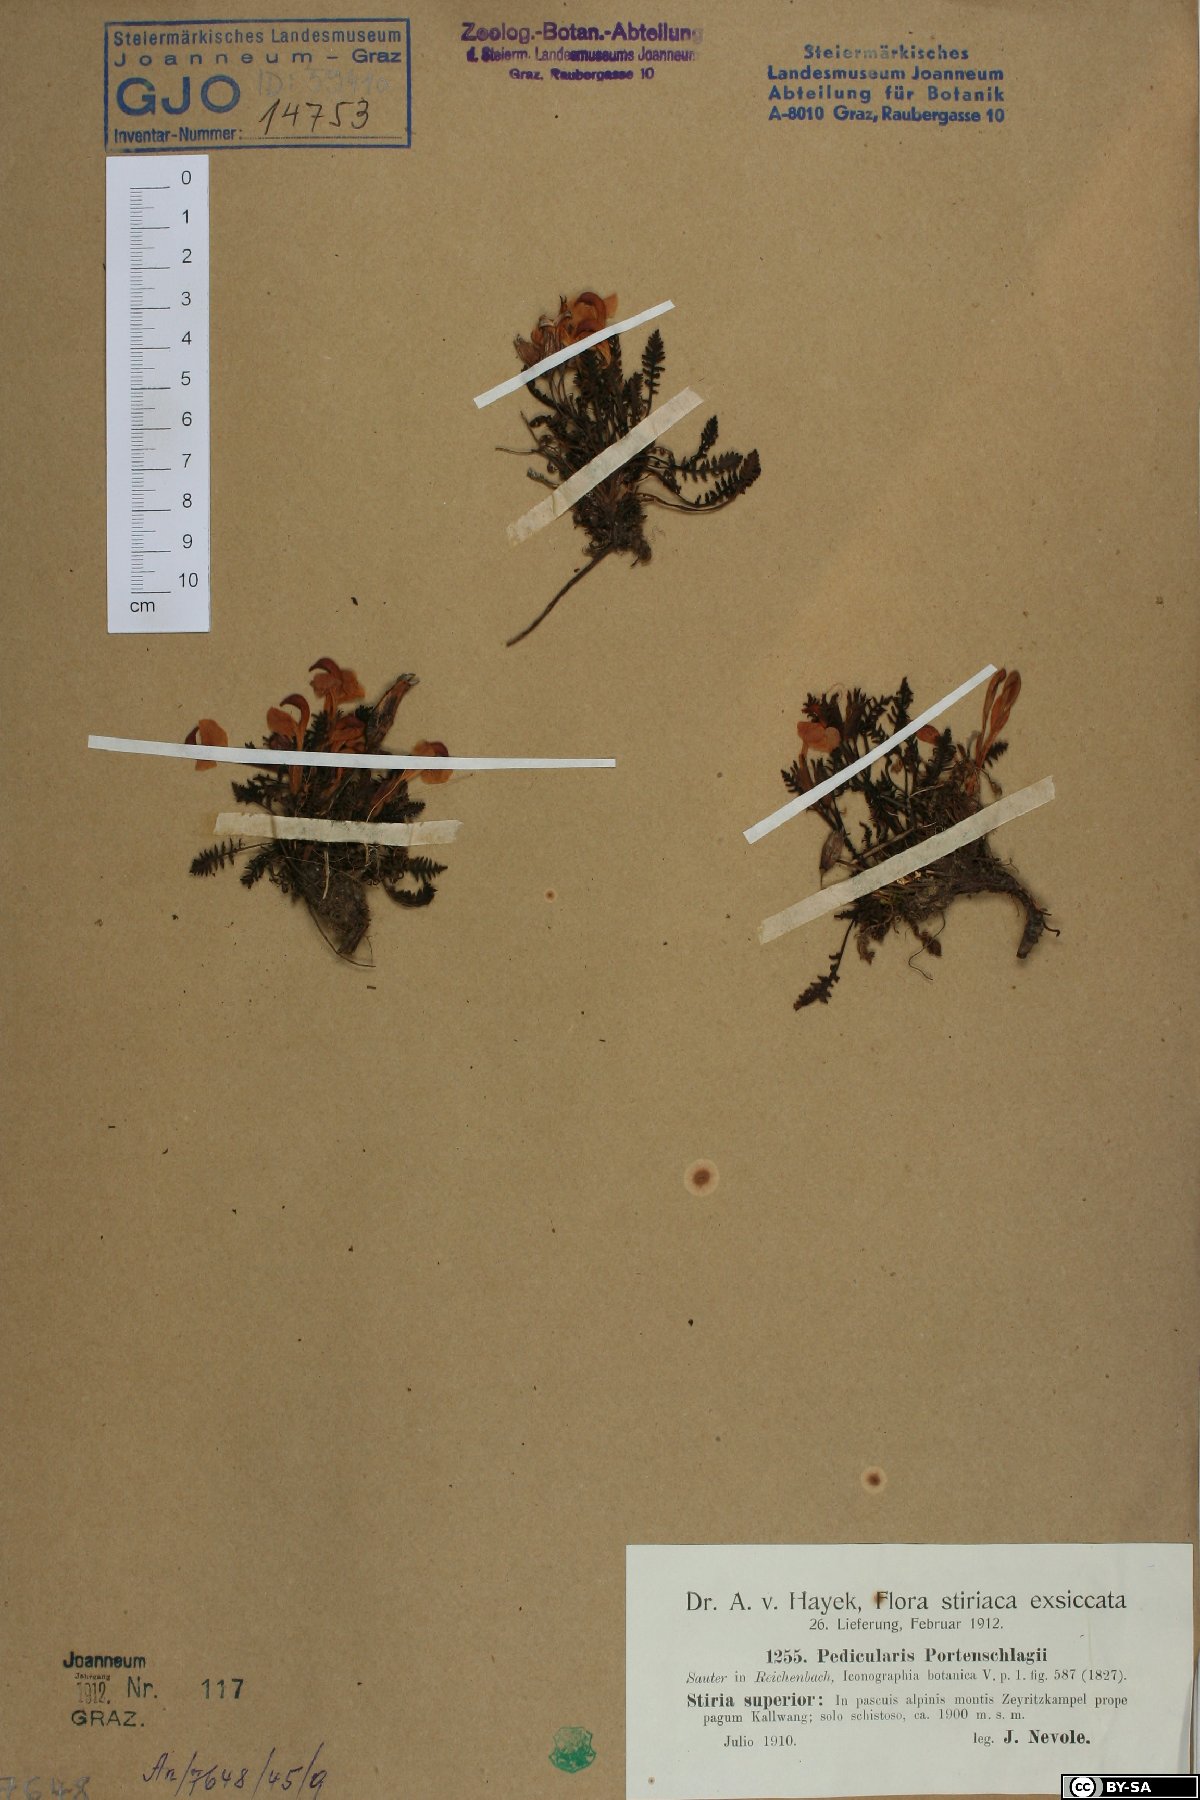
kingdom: Plantae
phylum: Tracheophyta
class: Magnoliopsida
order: Lamiales
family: Orobanchaceae
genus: Pedicularis
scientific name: Pedicularis portenschlagii
